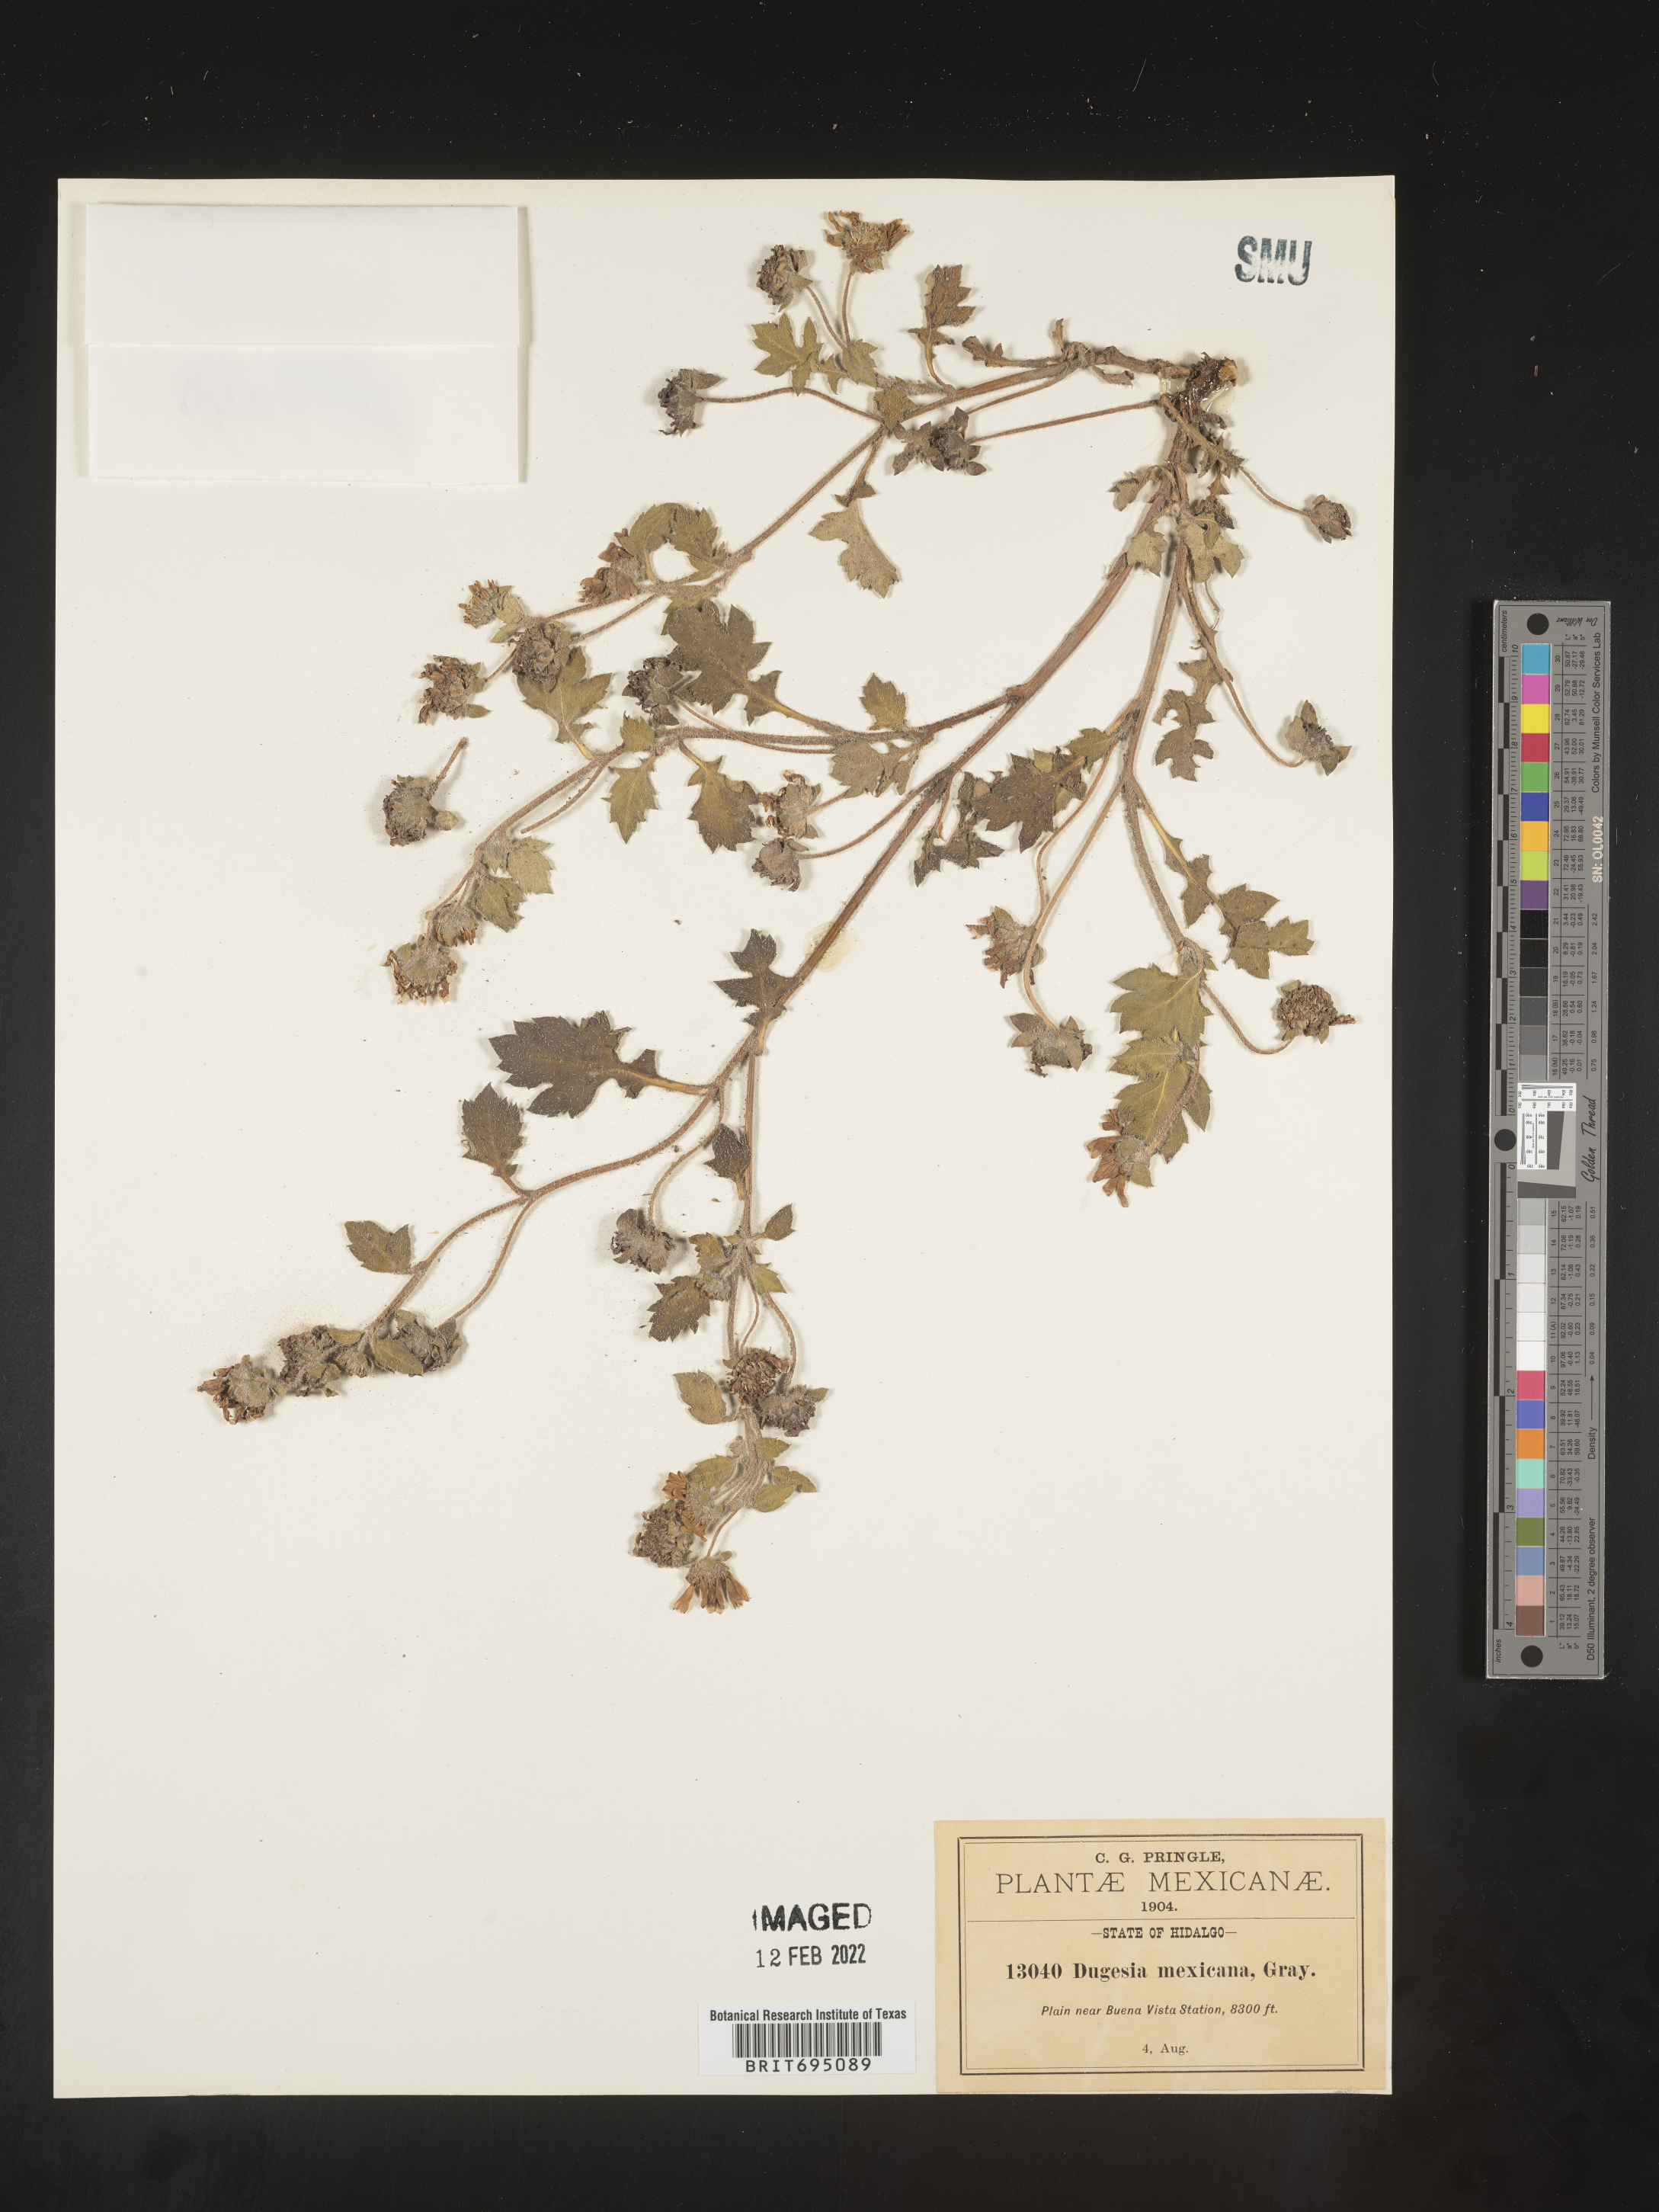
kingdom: Plantae
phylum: Tracheophyta
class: Magnoliopsida
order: Asterales
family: Asteraceae
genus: Dugesia
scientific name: Dugesia
